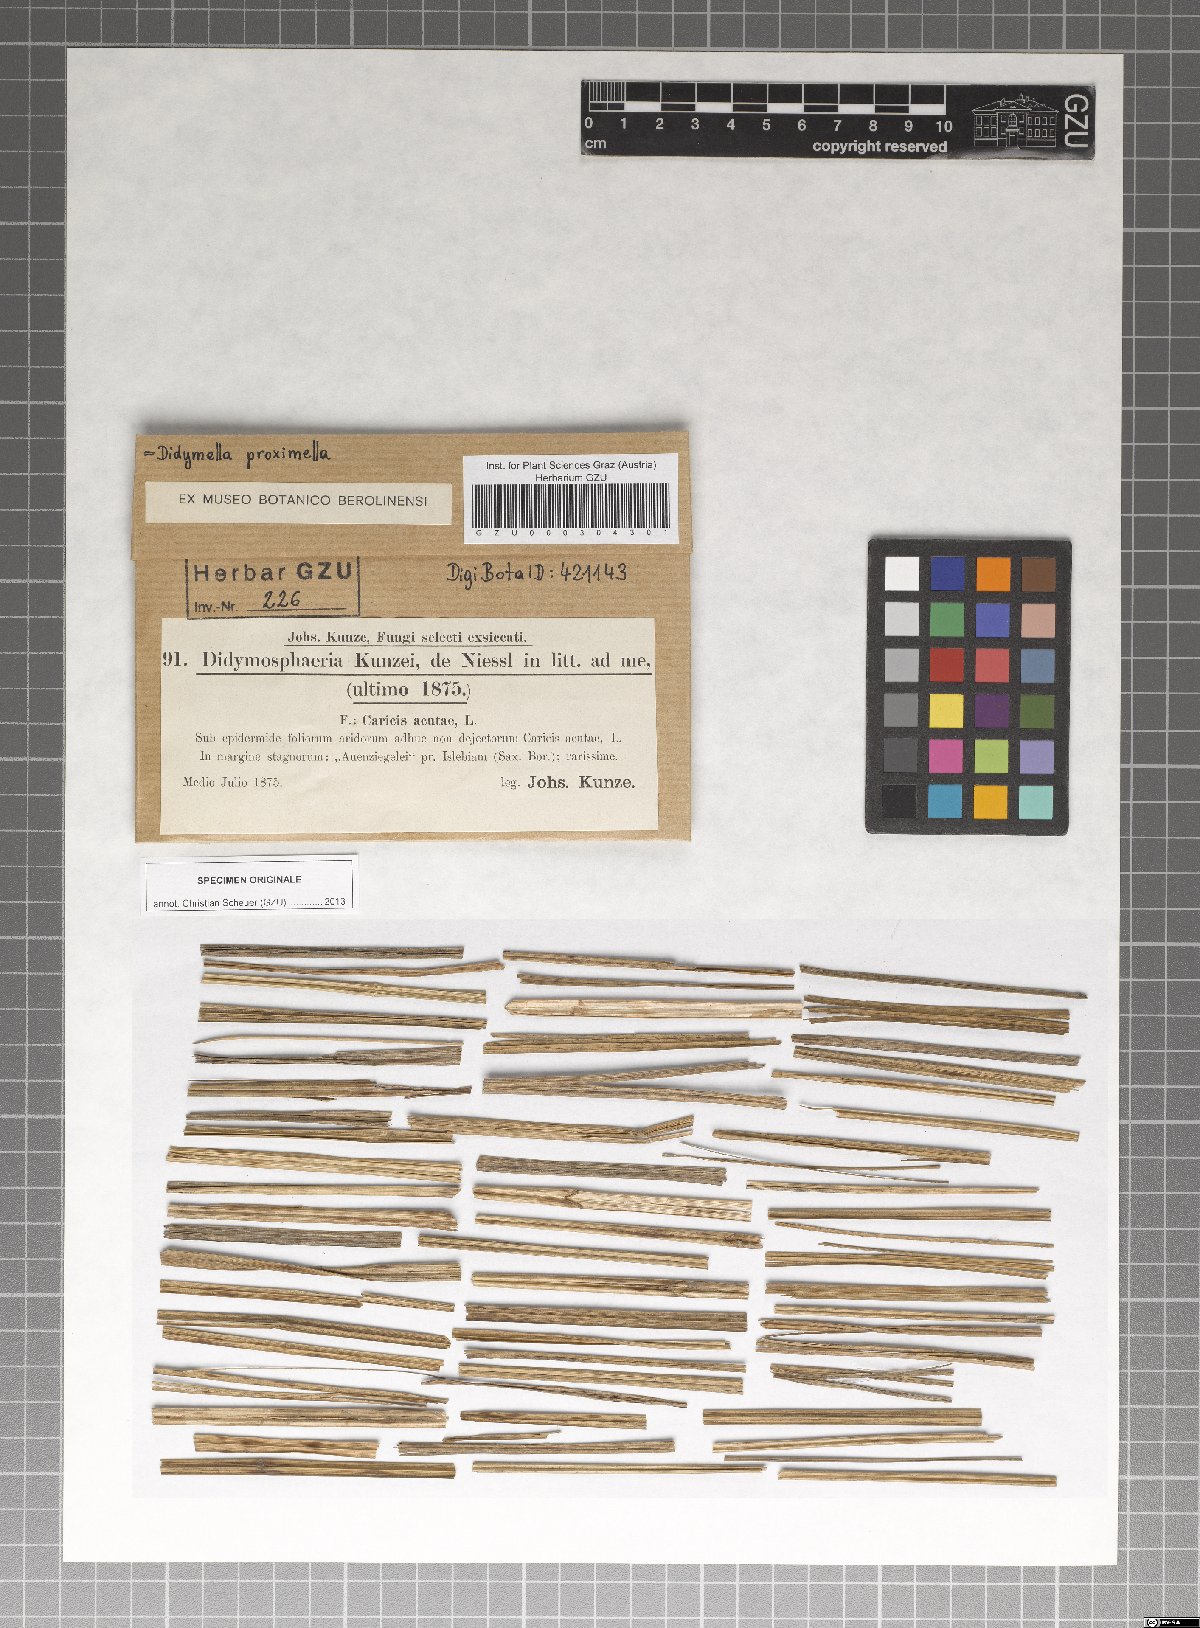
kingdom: Fungi
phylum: Ascomycota
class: Dothideomycetes
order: Pleosporales
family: Didymosphaeriaceae
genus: Didymosphaeria
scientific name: Didymosphaeria
